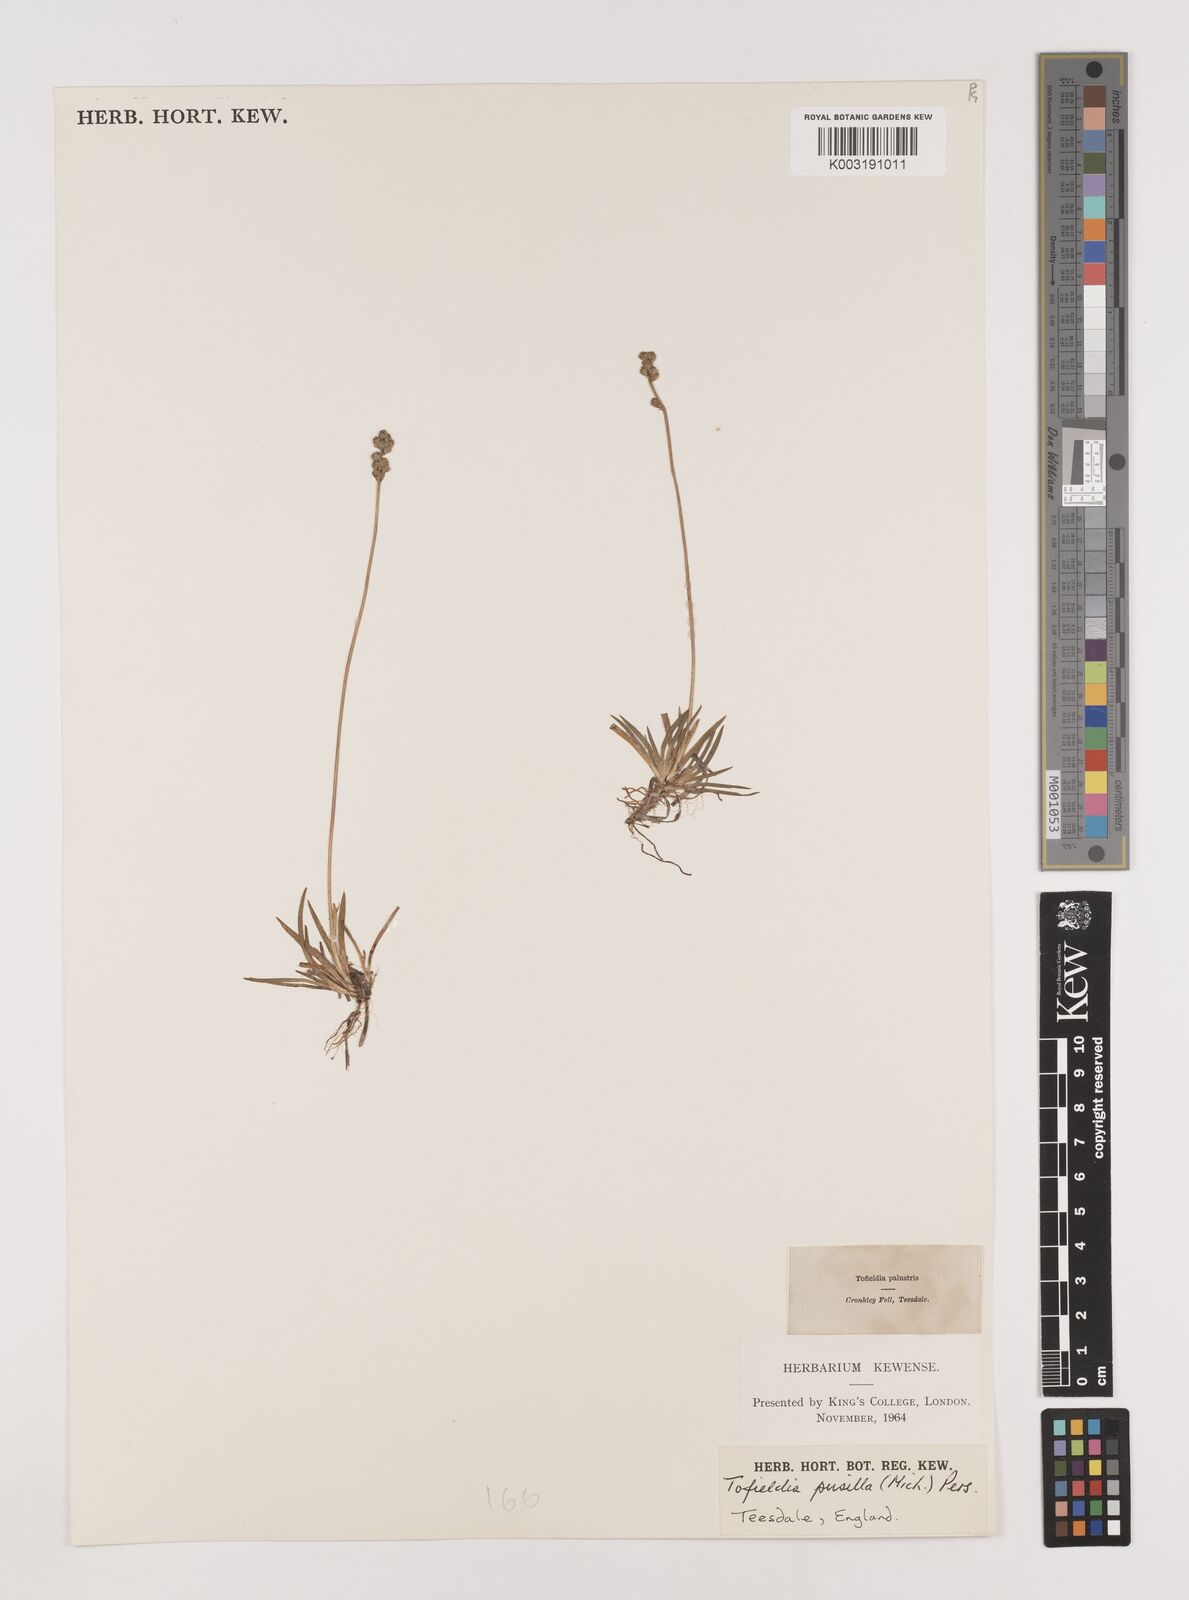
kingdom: Plantae
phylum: Tracheophyta
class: Liliopsida
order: Alismatales
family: Tofieldiaceae
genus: Tofieldia
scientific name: Tofieldia pusilla
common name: Scottish false asphodel
